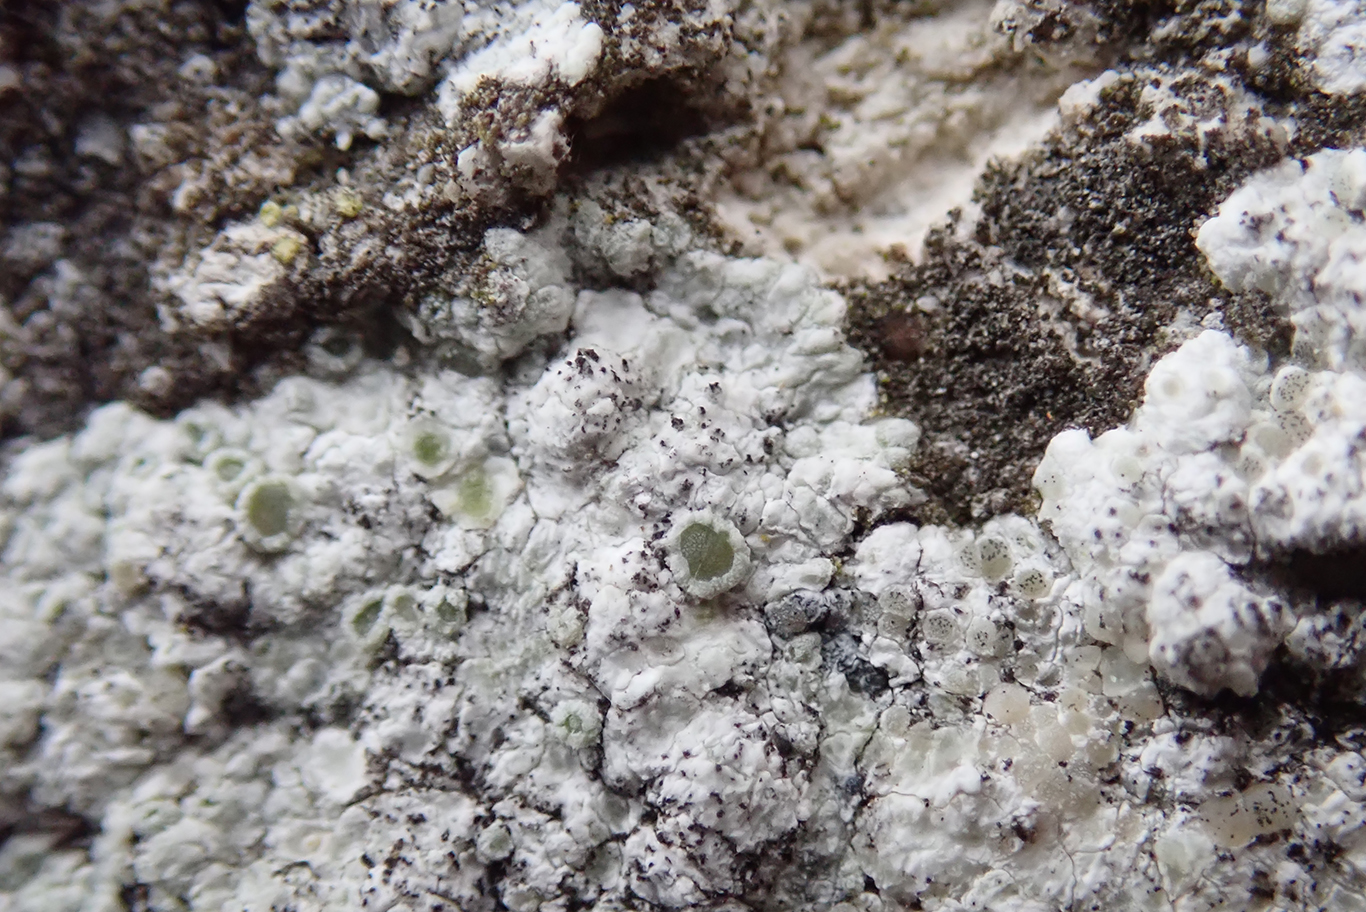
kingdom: Fungi
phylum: Ascomycota
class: Lecanoromycetes
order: Lecanorales
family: Lecanoraceae
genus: Polyozosia
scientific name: Polyozosia albescens
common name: cement-kantskivelav
